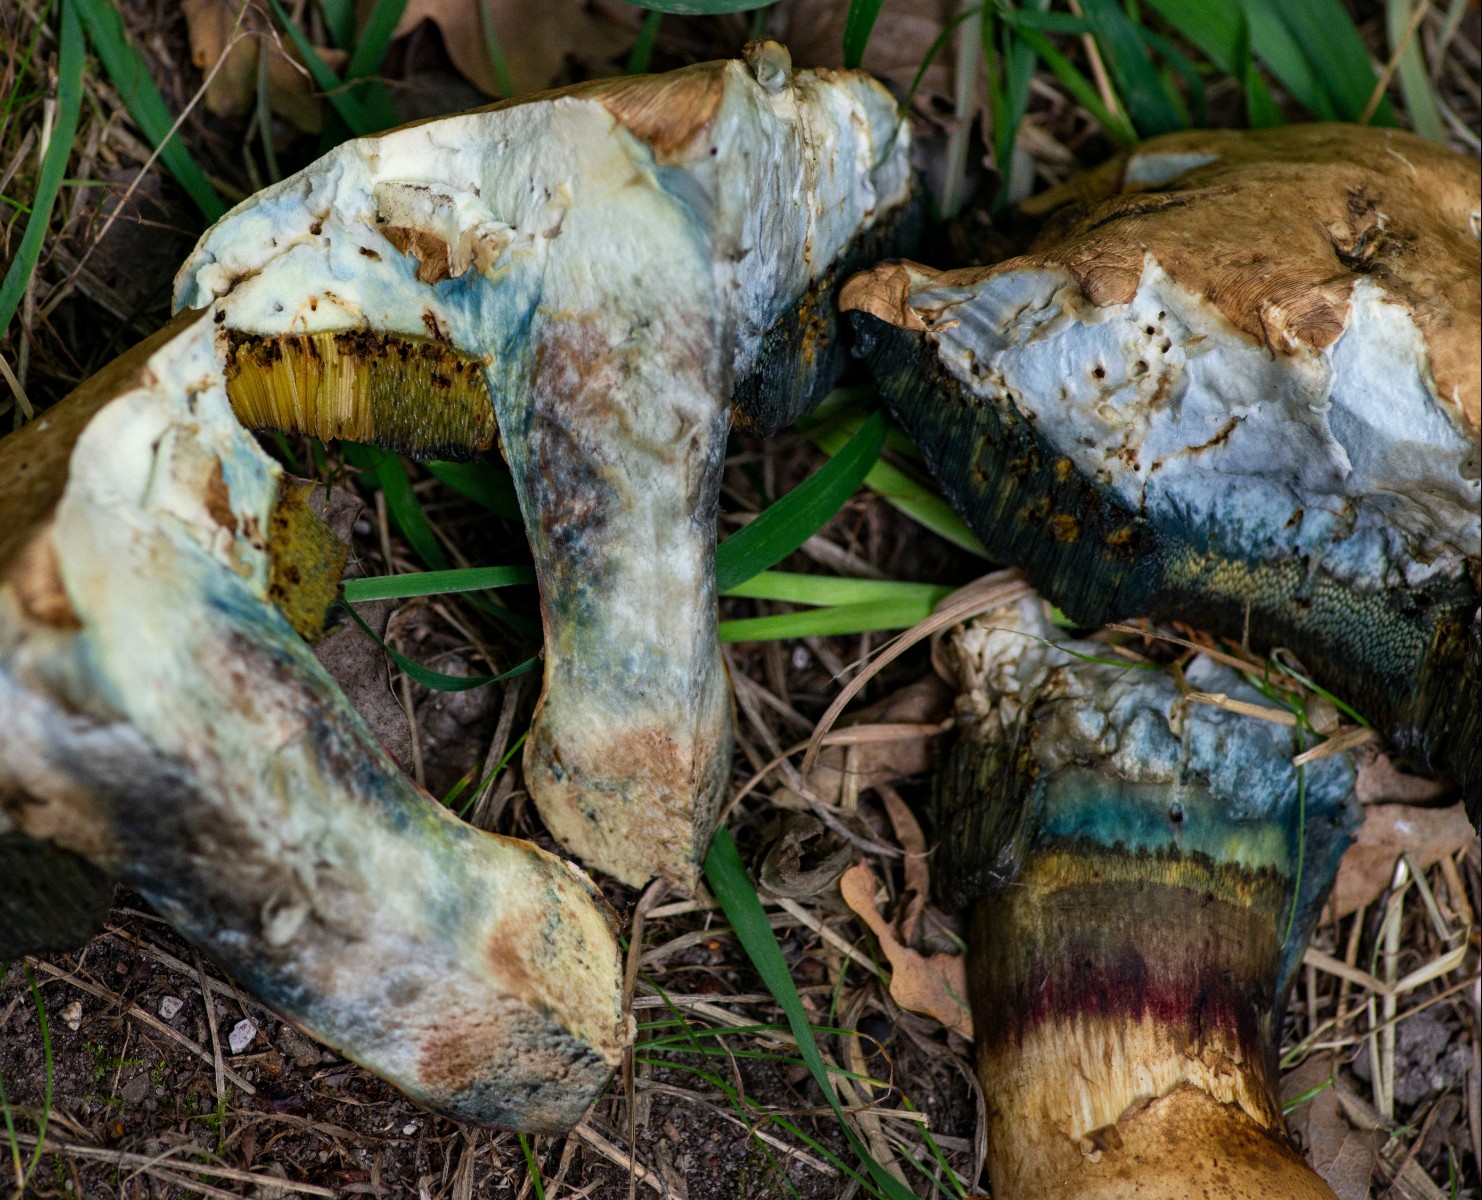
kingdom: Fungi
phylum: Basidiomycota
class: Agaricomycetes
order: Boletales
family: Boletaceae
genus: Caloboletus
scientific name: Caloboletus calopus
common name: skønfodet rørhat
